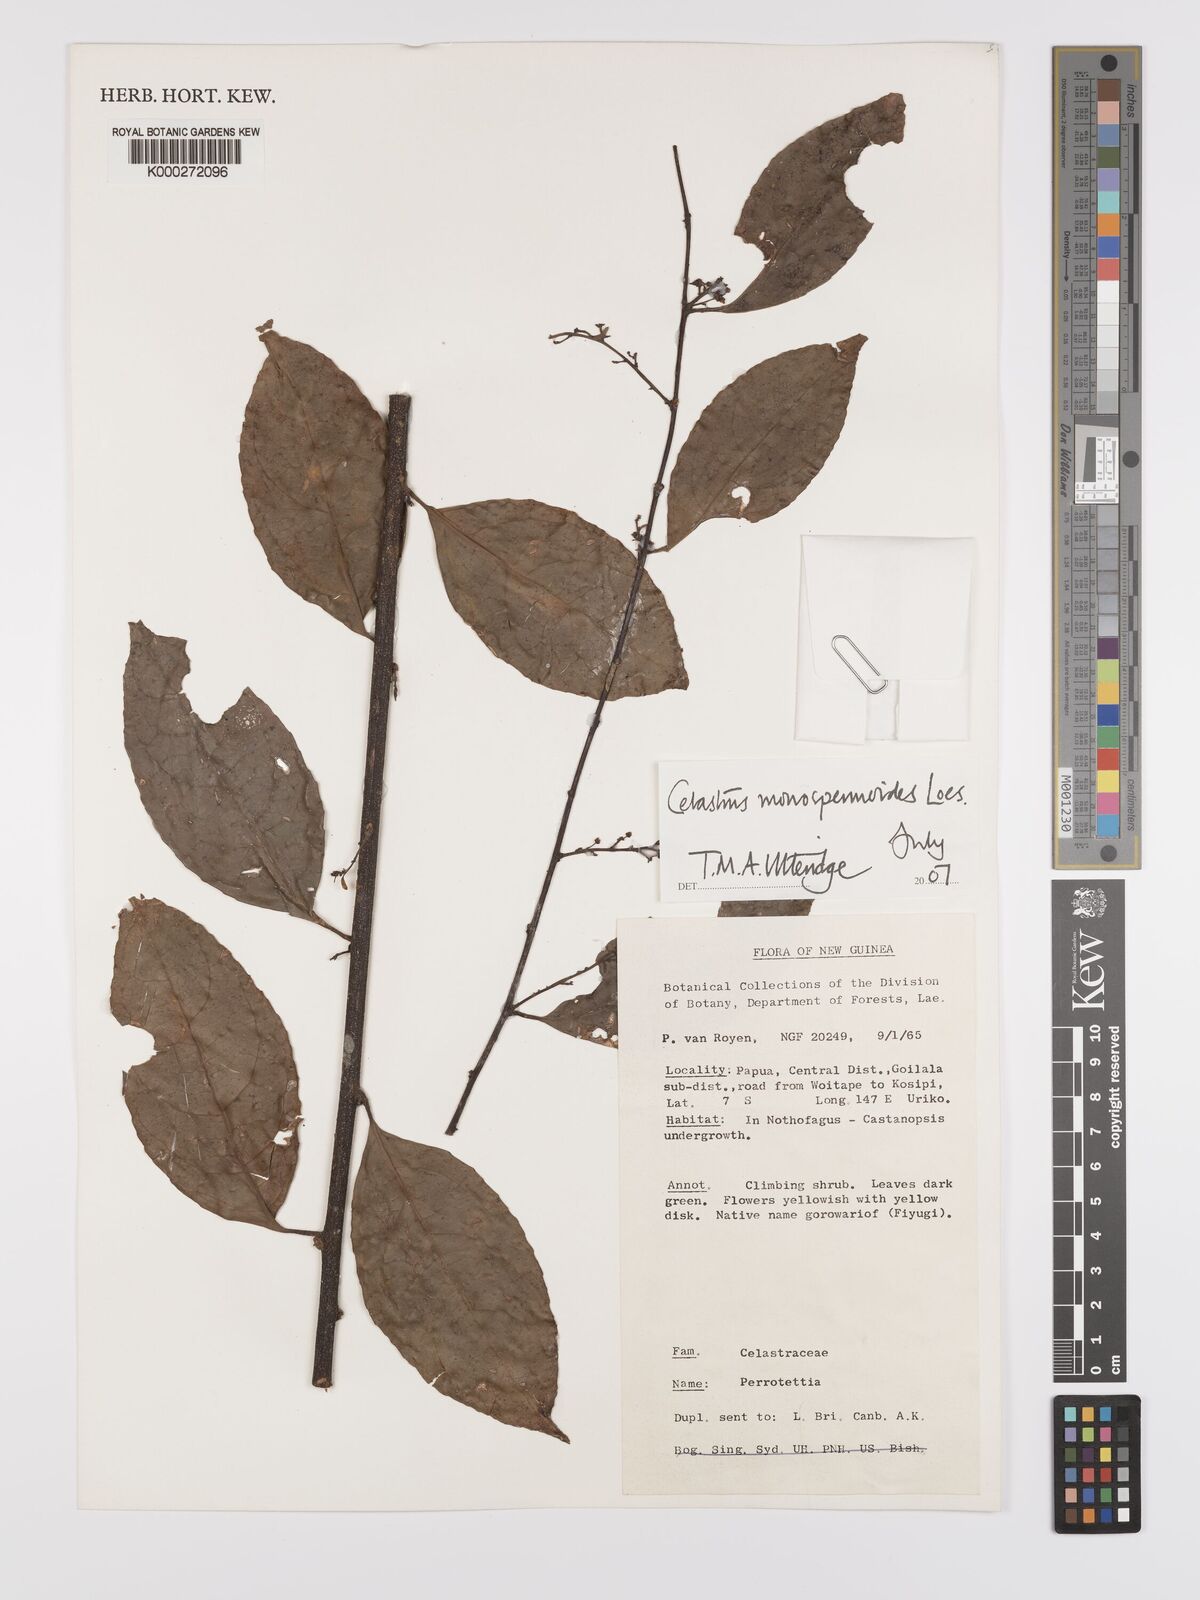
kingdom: Plantae
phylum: Tracheophyta
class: Magnoliopsida
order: Celastrales
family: Celastraceae
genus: Celastrus
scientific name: Celastrus monospermoides
